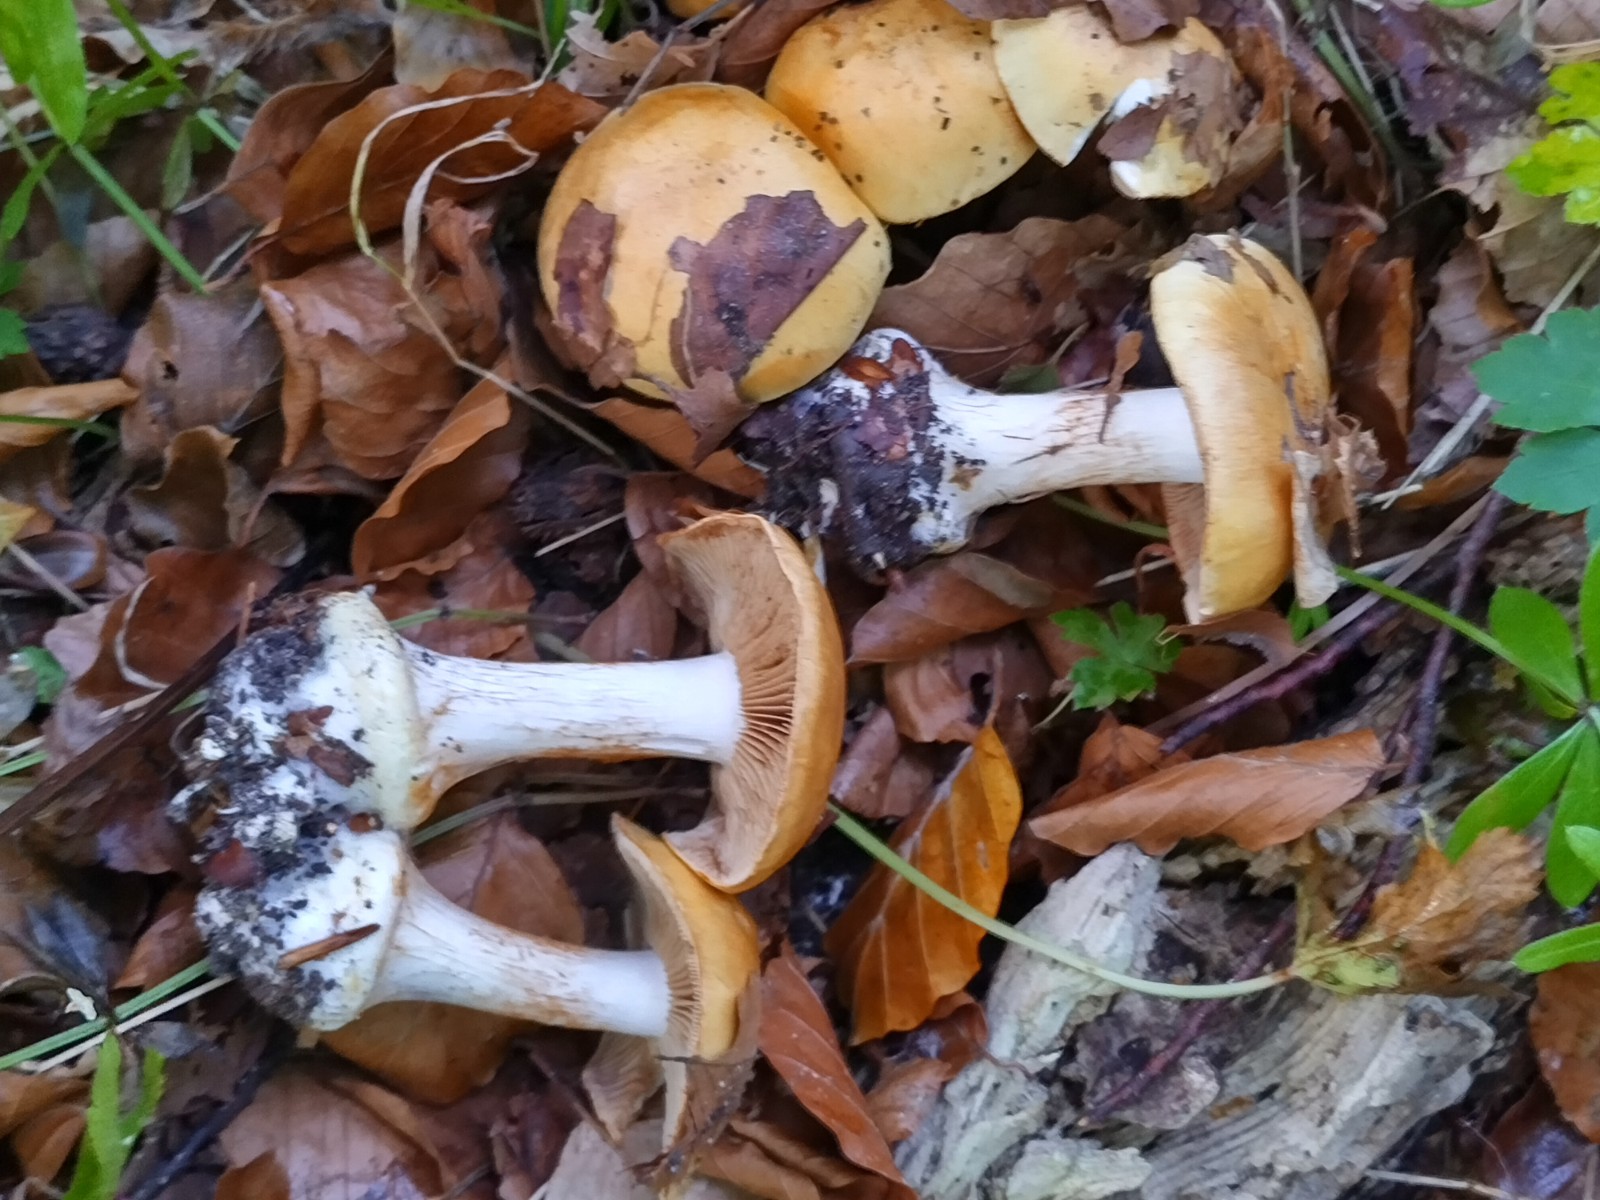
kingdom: Fungi
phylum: Basidiomycota
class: Agaricomycetes
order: Agaricales
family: Cortinariaceae
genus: Phlegmacium
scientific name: Phlegmacium rhizophorum
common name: finkornet slørhat
